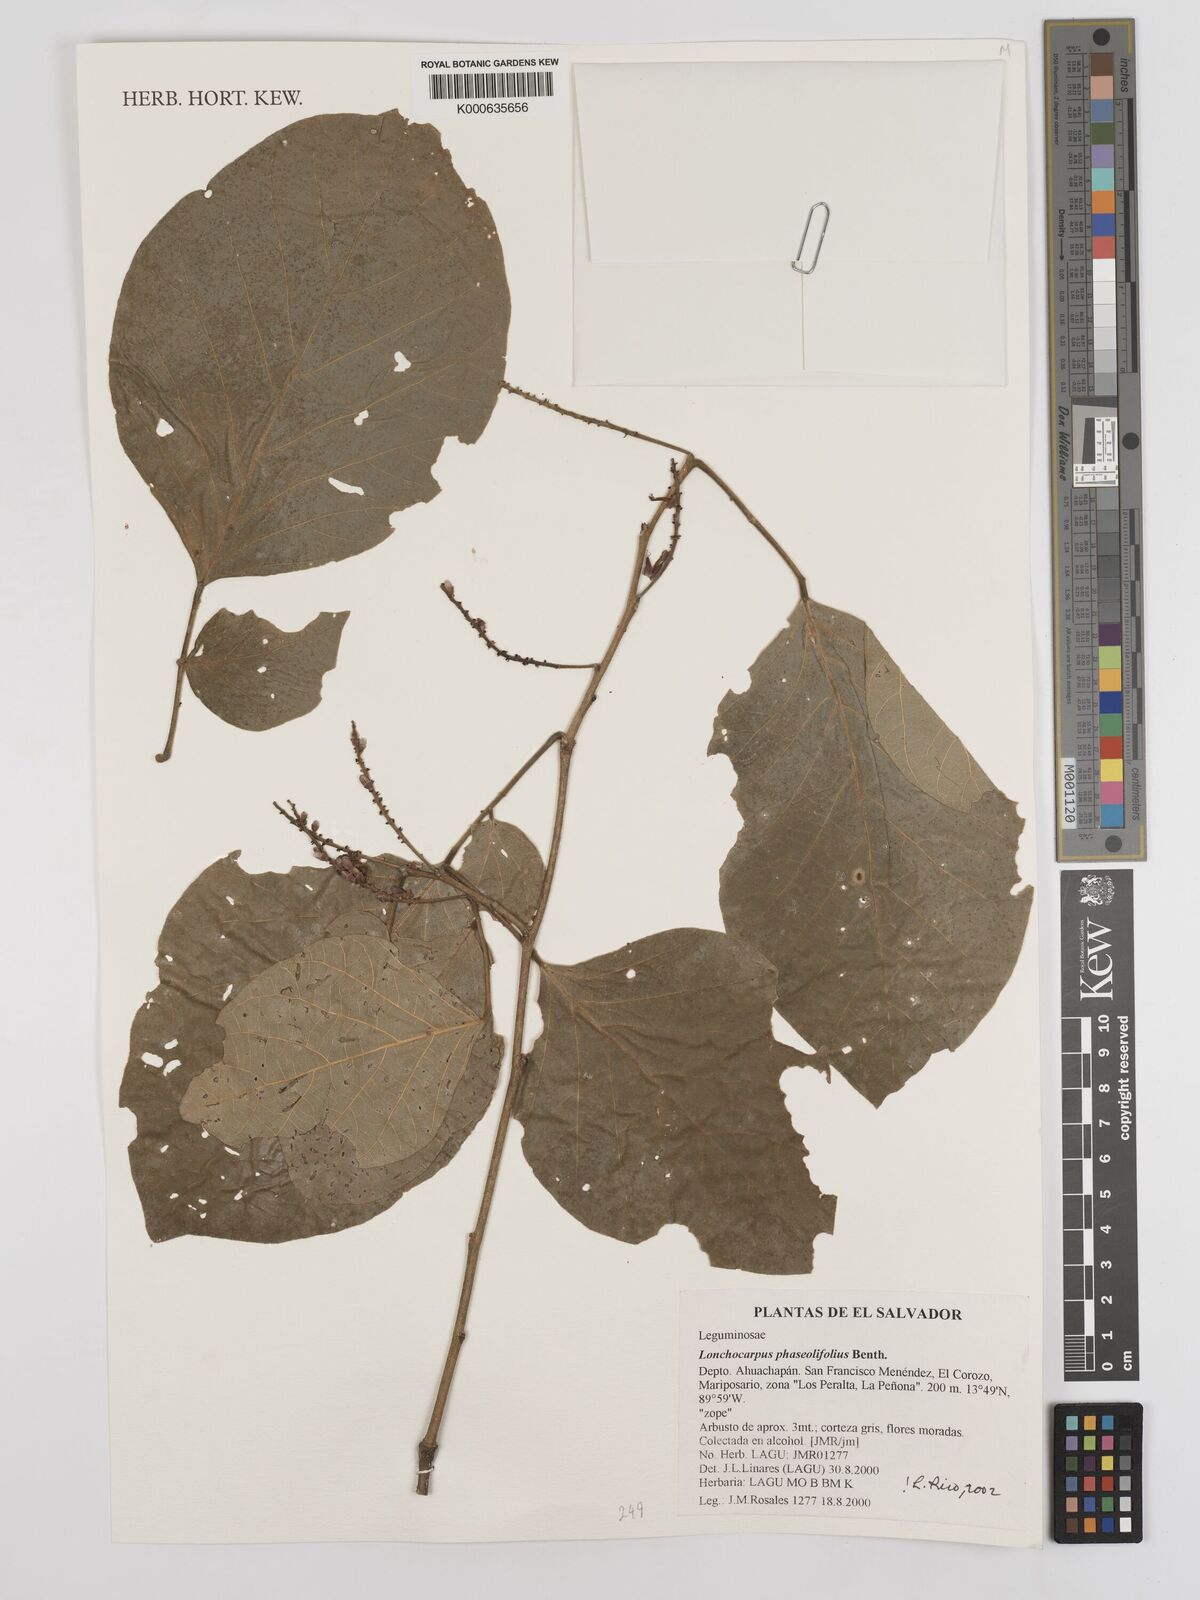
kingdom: Plantae
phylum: Tracheophyta
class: Magnoliopsida
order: Fabales
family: Fabaceae
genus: Lonchocarpus
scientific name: Lonchocarpus phaseolifolius
